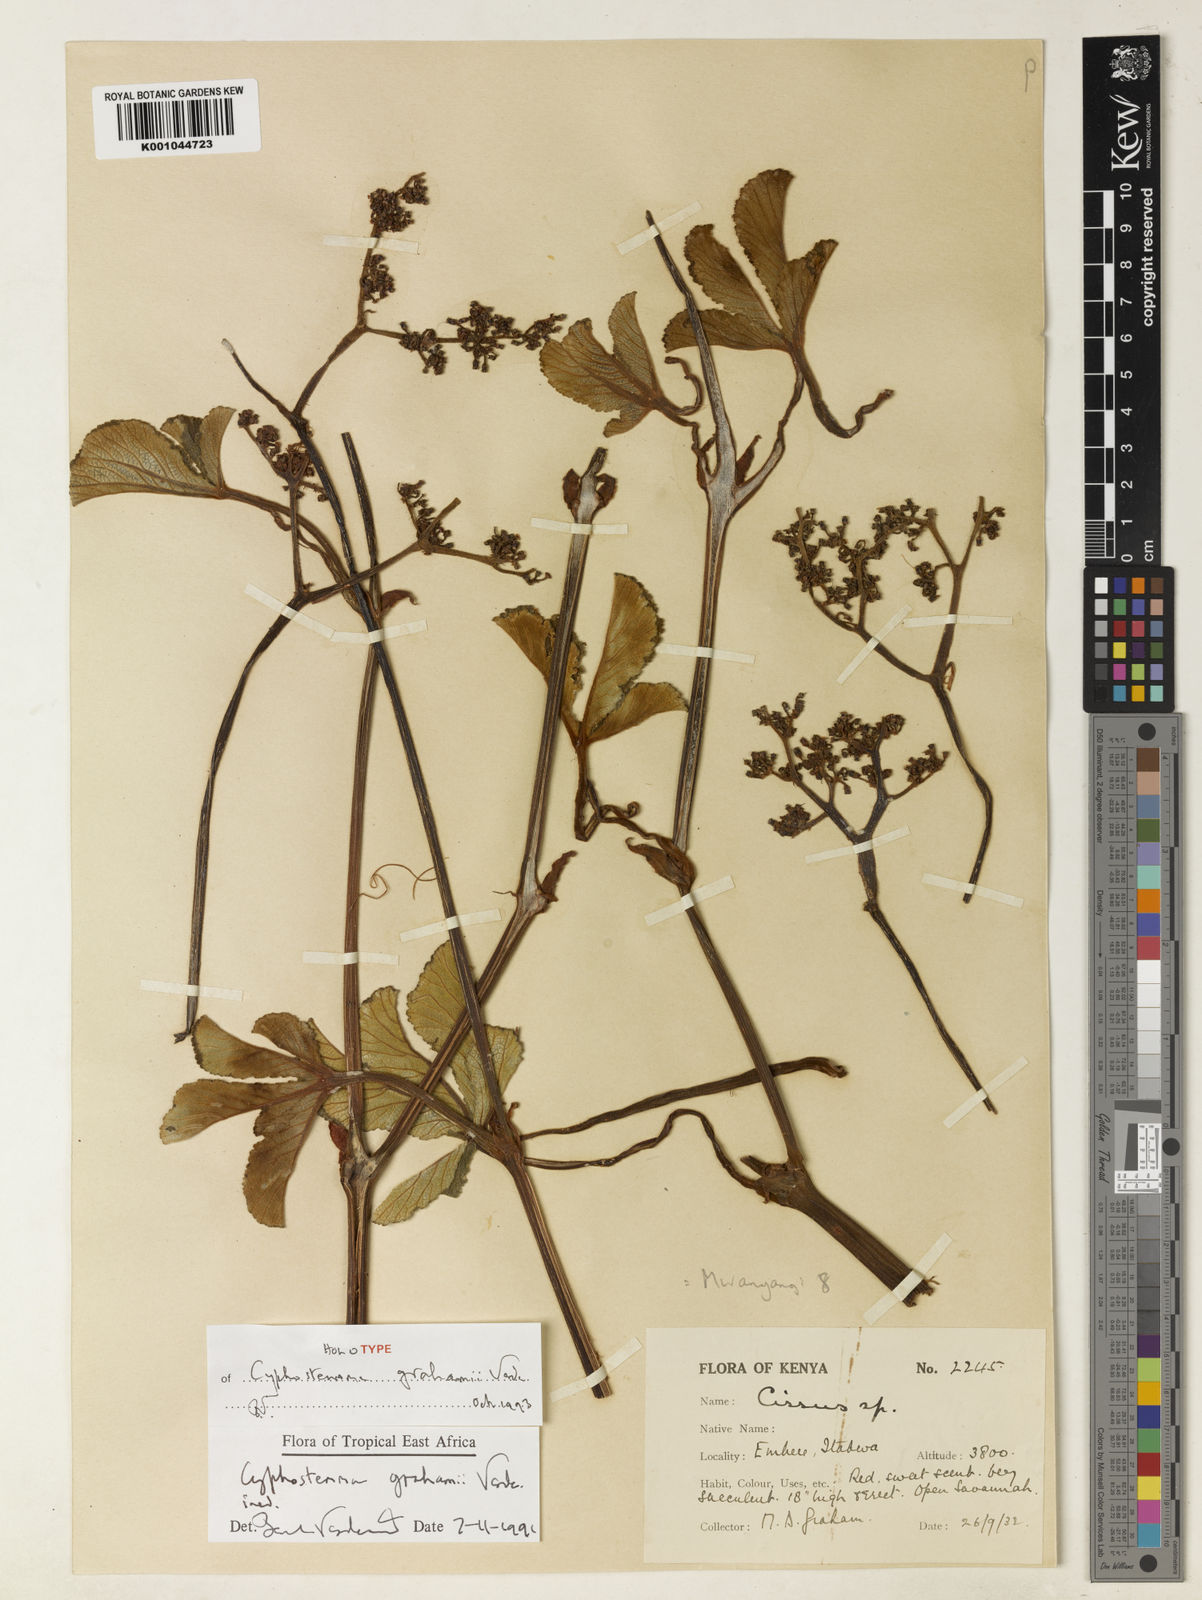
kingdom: Plantae
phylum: Tracheophyta
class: Magnoliopsida
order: Vitales
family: Vitaceae
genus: Cyphostemma
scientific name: Cyphostemma grahamii
